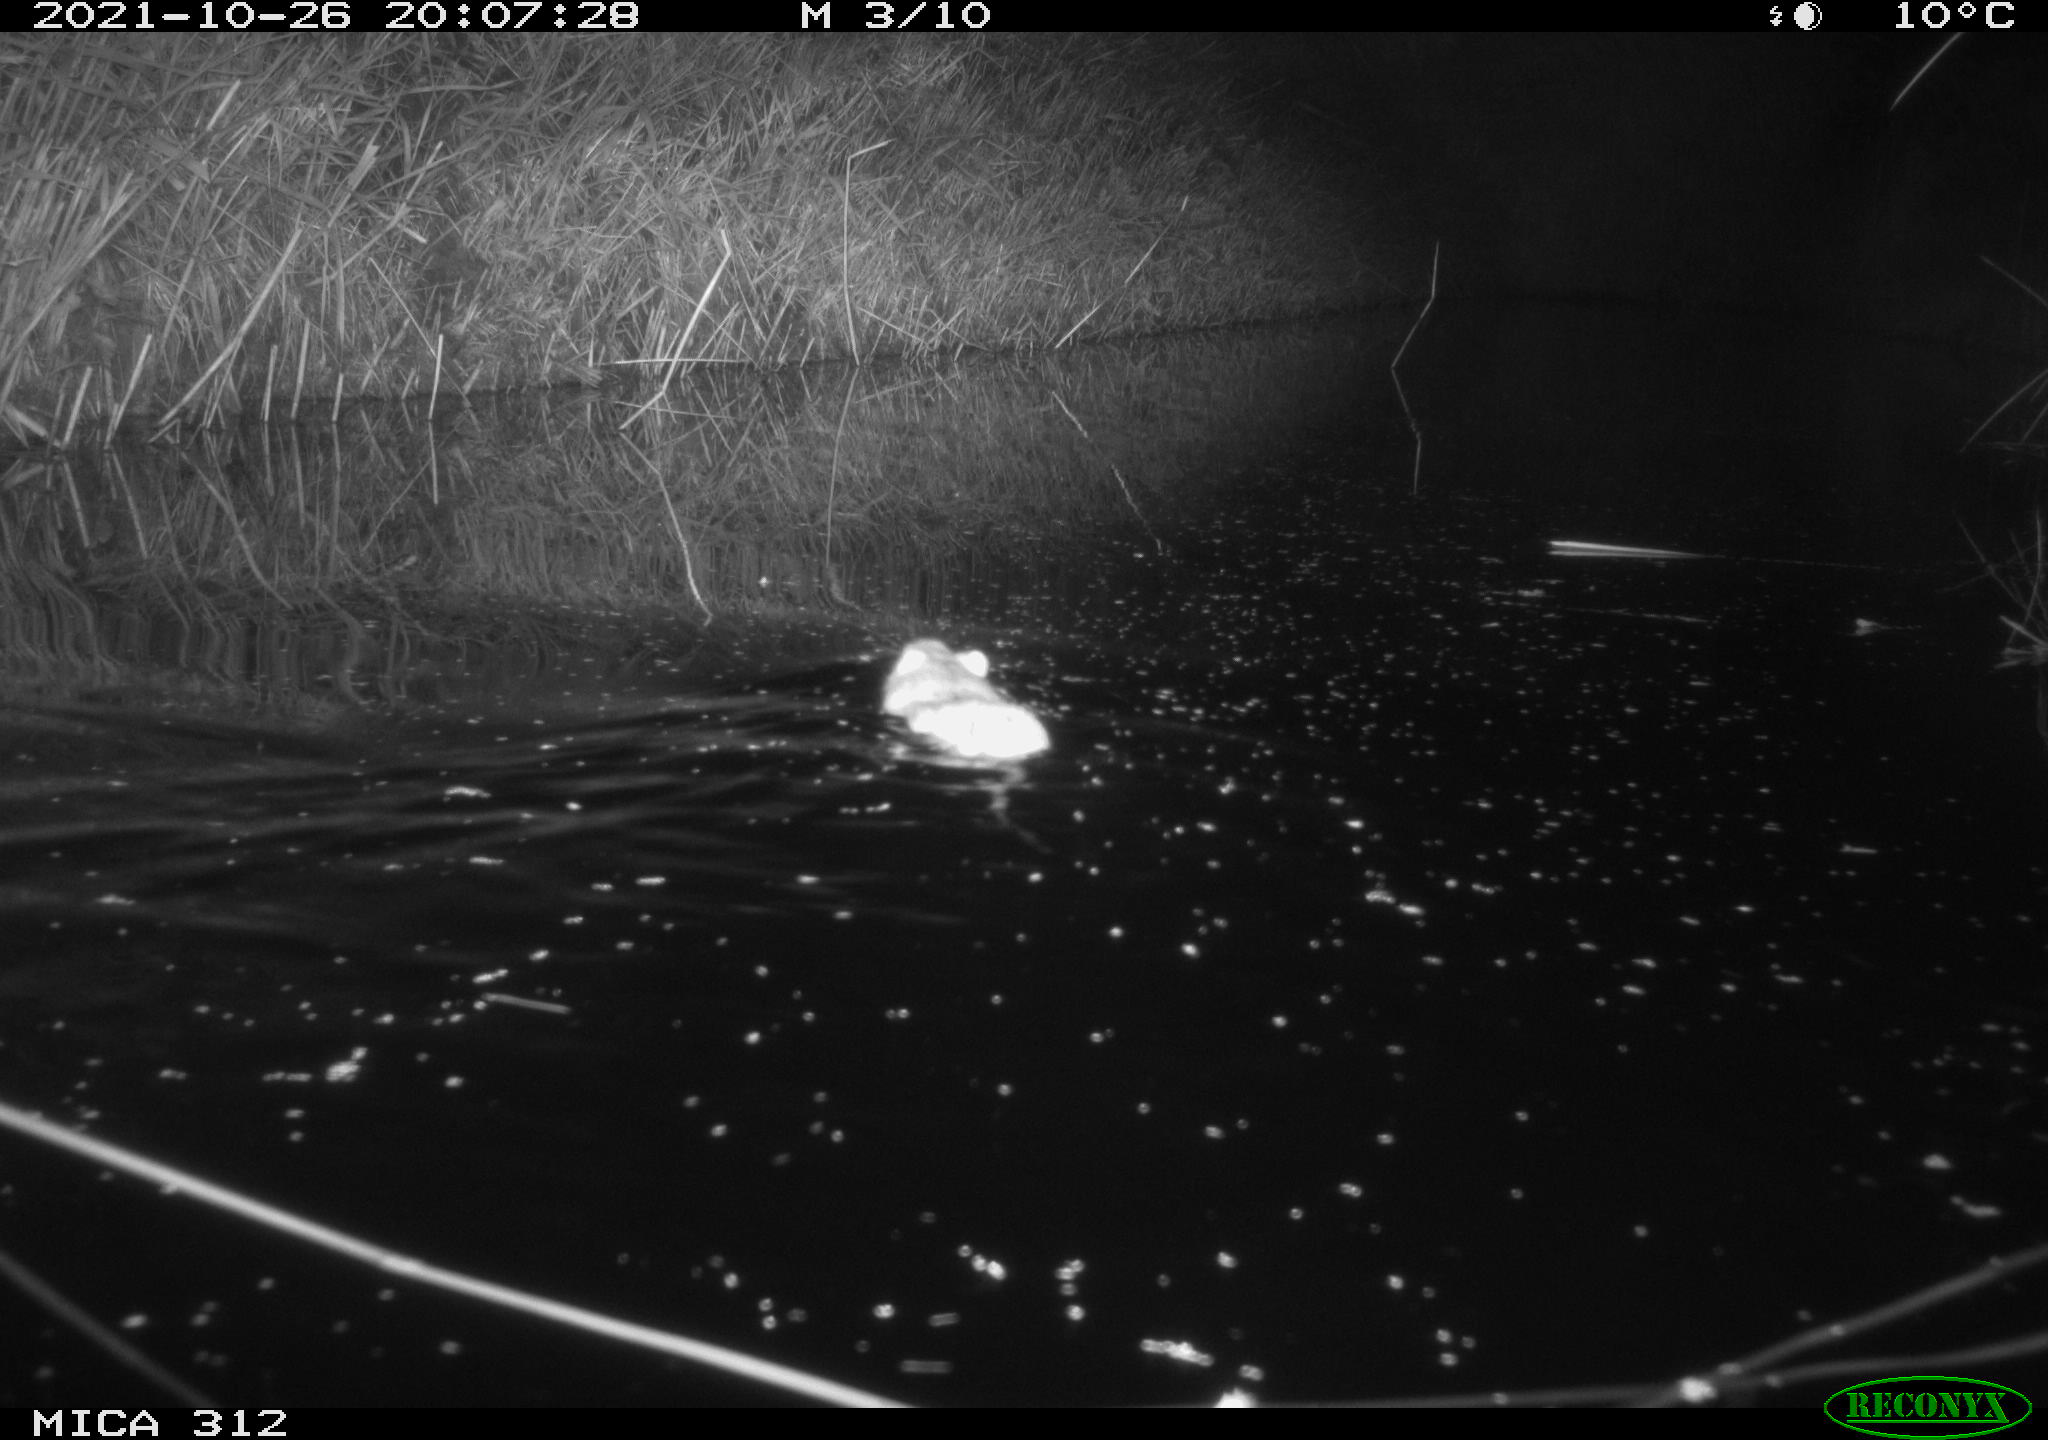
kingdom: Animalia
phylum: Chordata
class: Mammalia
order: Rodentia
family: Muridae
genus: Rattus
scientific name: Rattus norvegicus
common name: Brown rat
